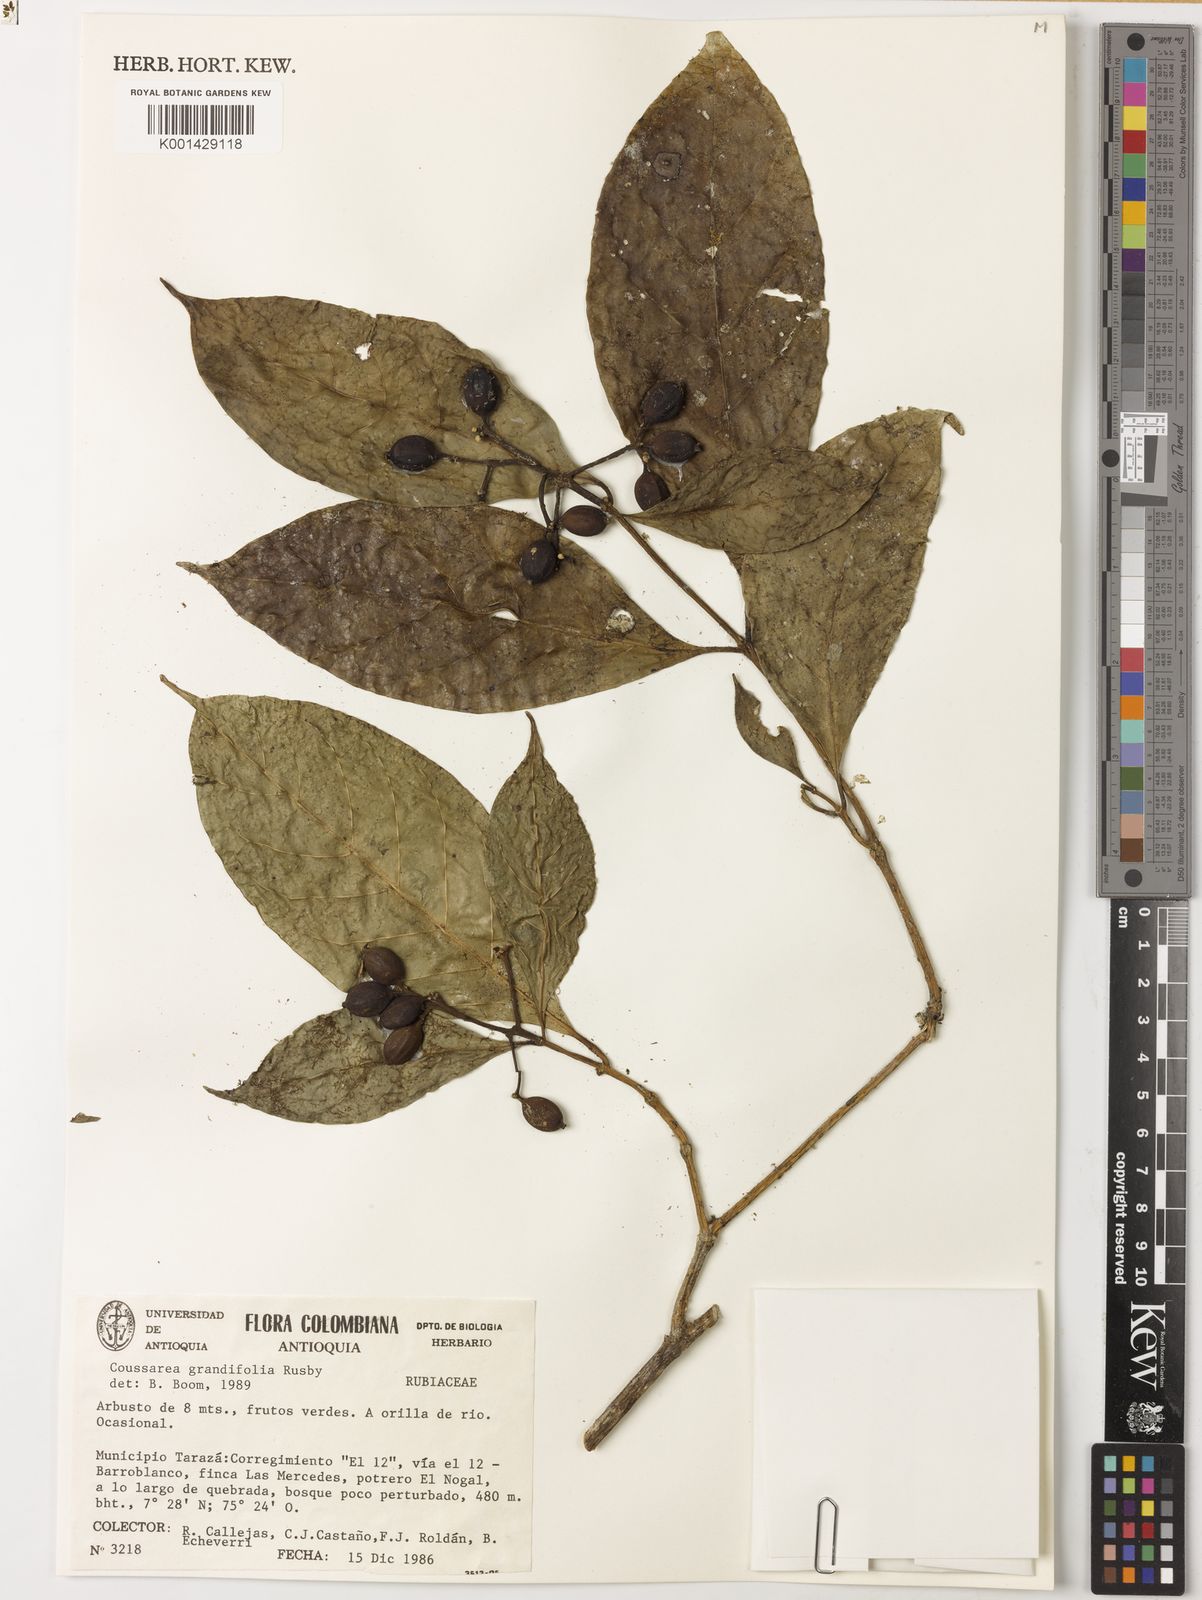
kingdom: Plantae
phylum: Tracheophyta
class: Magnoliopsida
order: Gentianales
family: Rubiaceae
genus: Coussarea
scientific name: Coussarea paniculata
